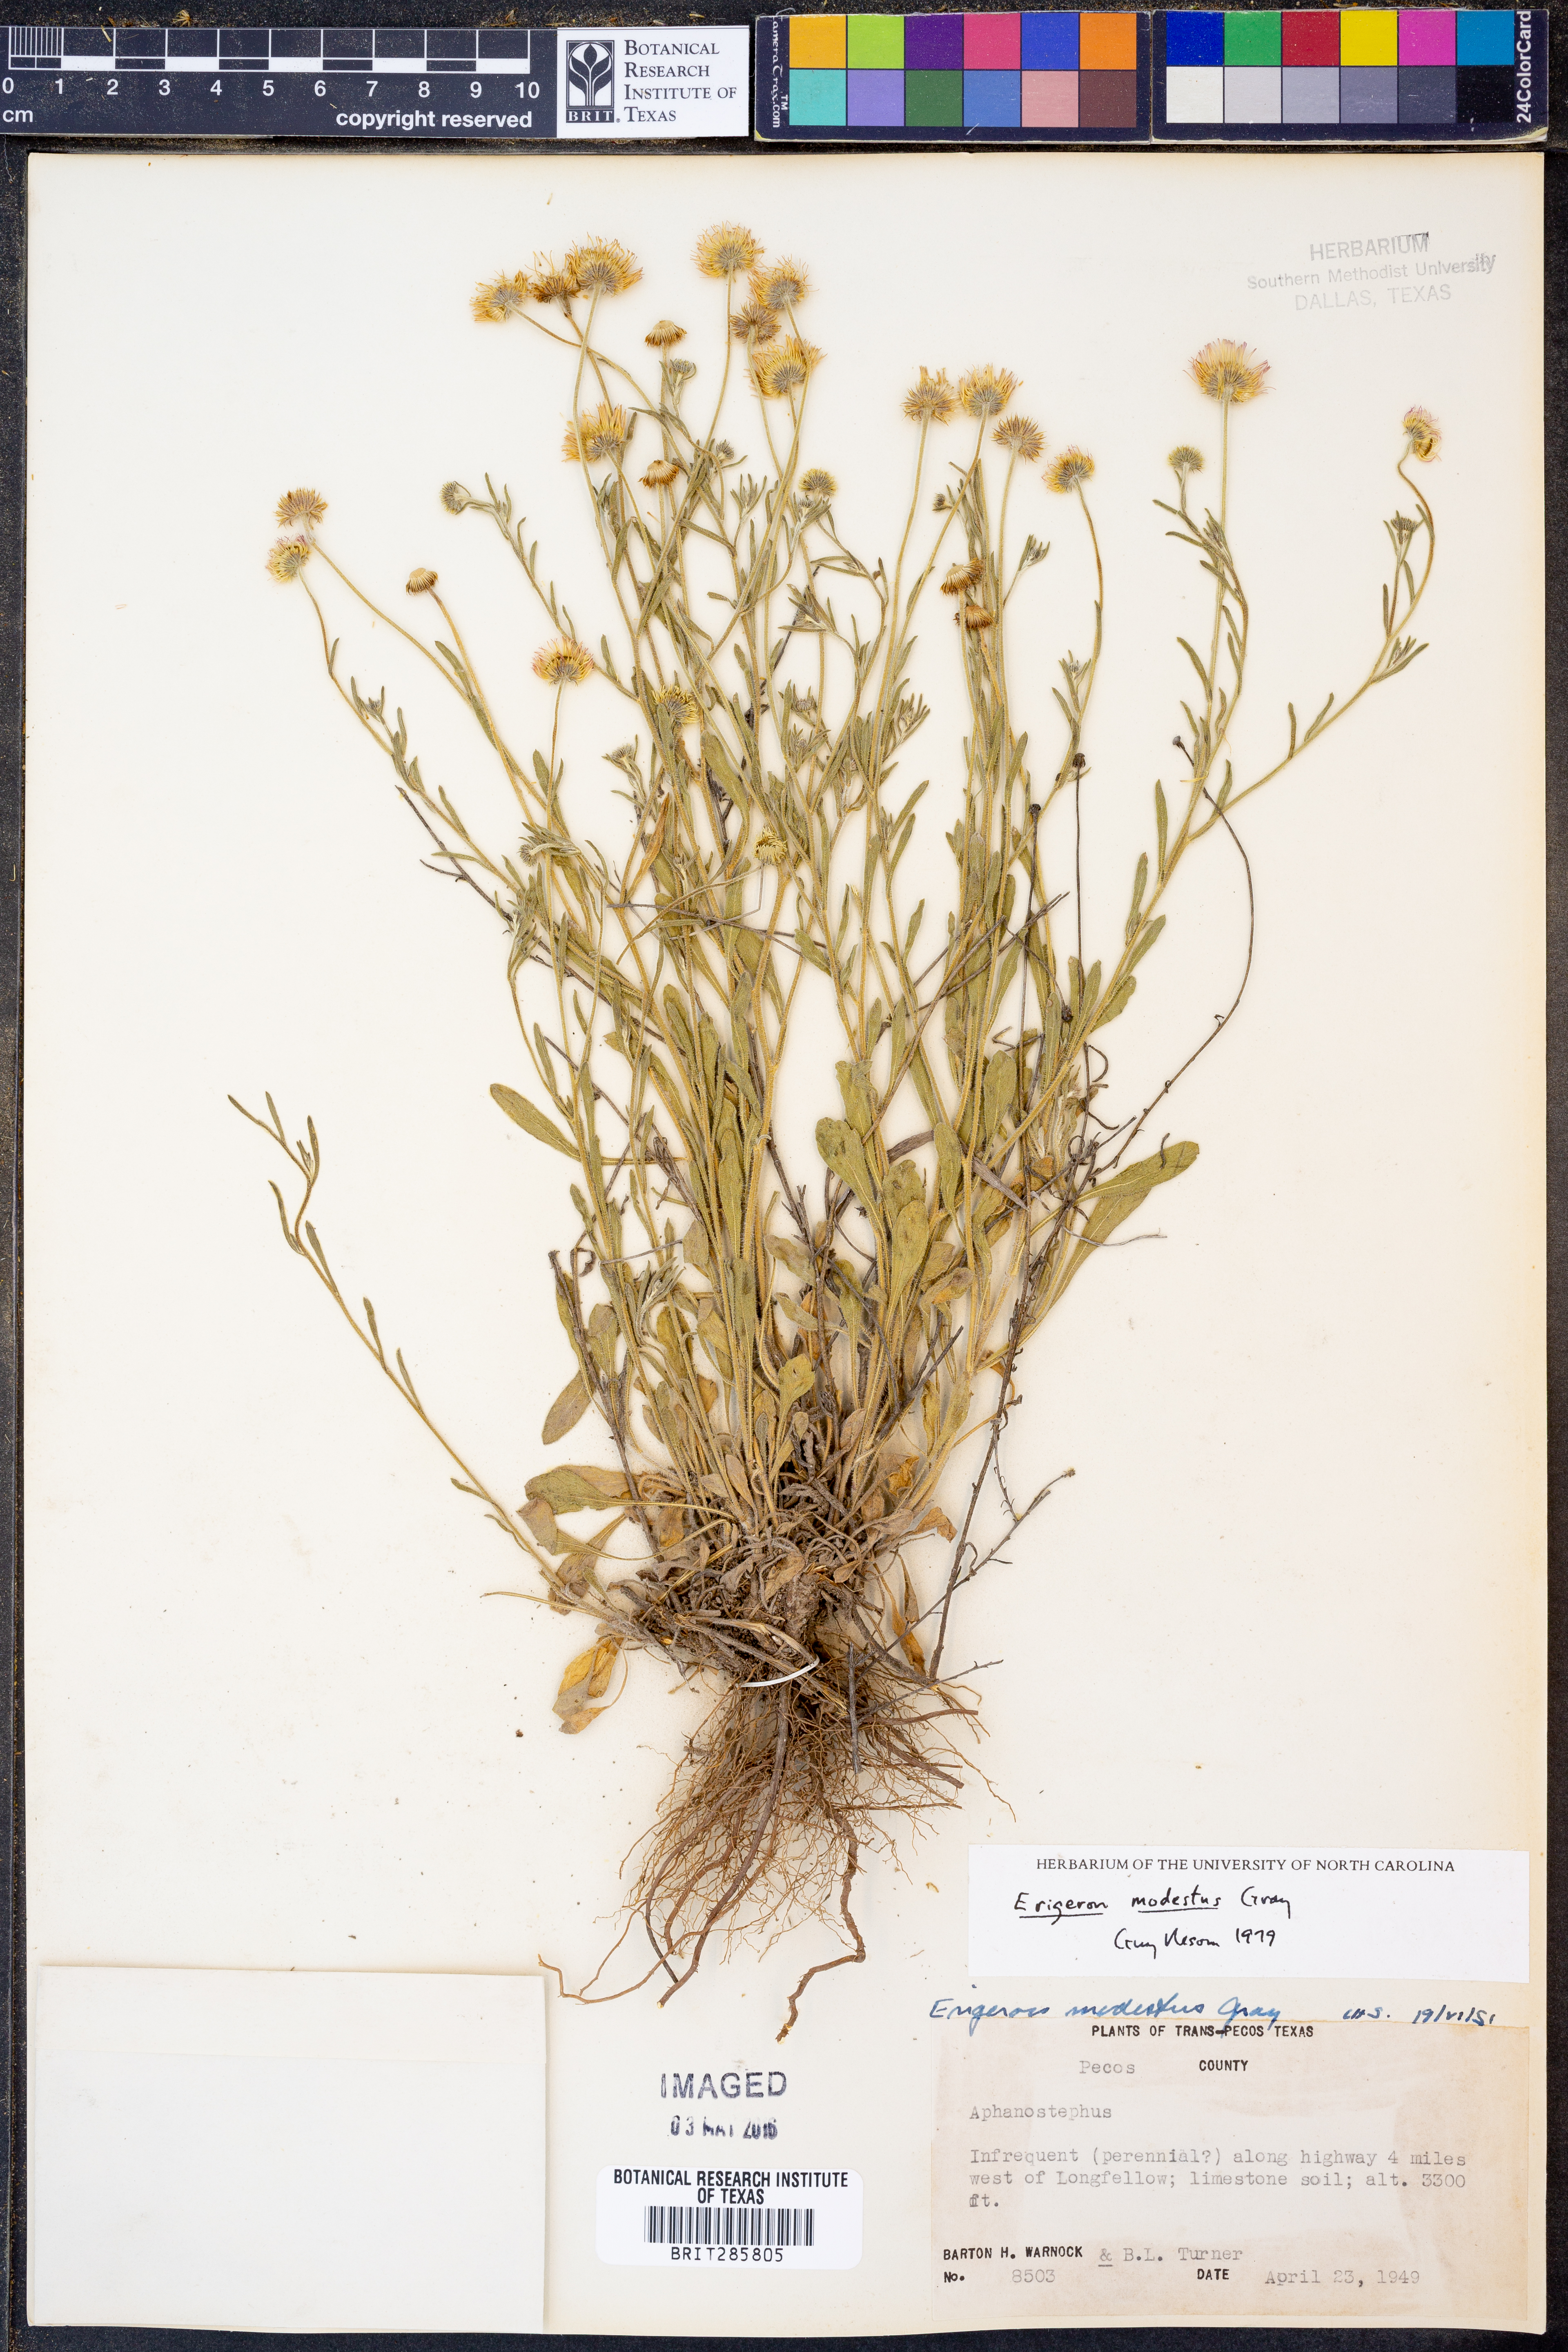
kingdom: Plantae
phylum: Tracheophyta
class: Magnoliopsida
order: Asterales
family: Asteraceae
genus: Erigeron
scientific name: Erigeron modestus
